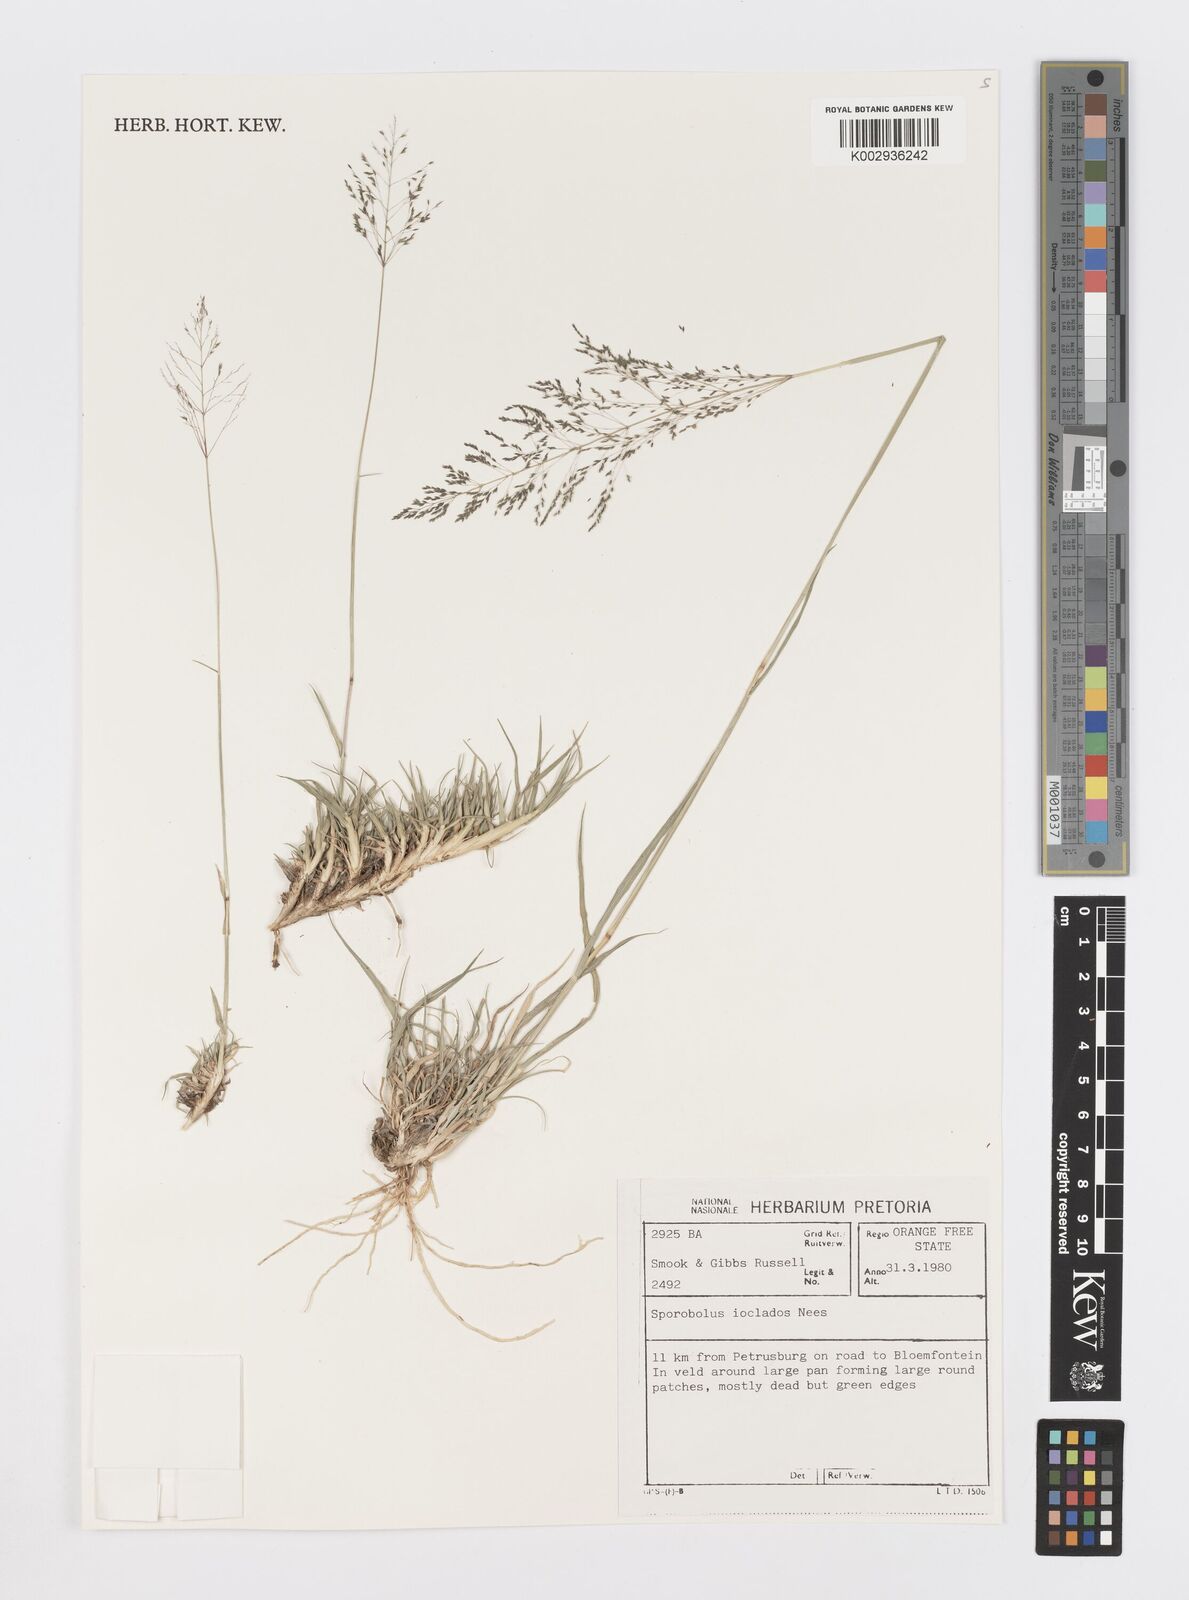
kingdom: Plantae
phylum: Tracheophyta
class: Liliopsida
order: Poales
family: Poaceae
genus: Sporobolus
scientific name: Sporobolus ioclados
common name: Pan dropseed
